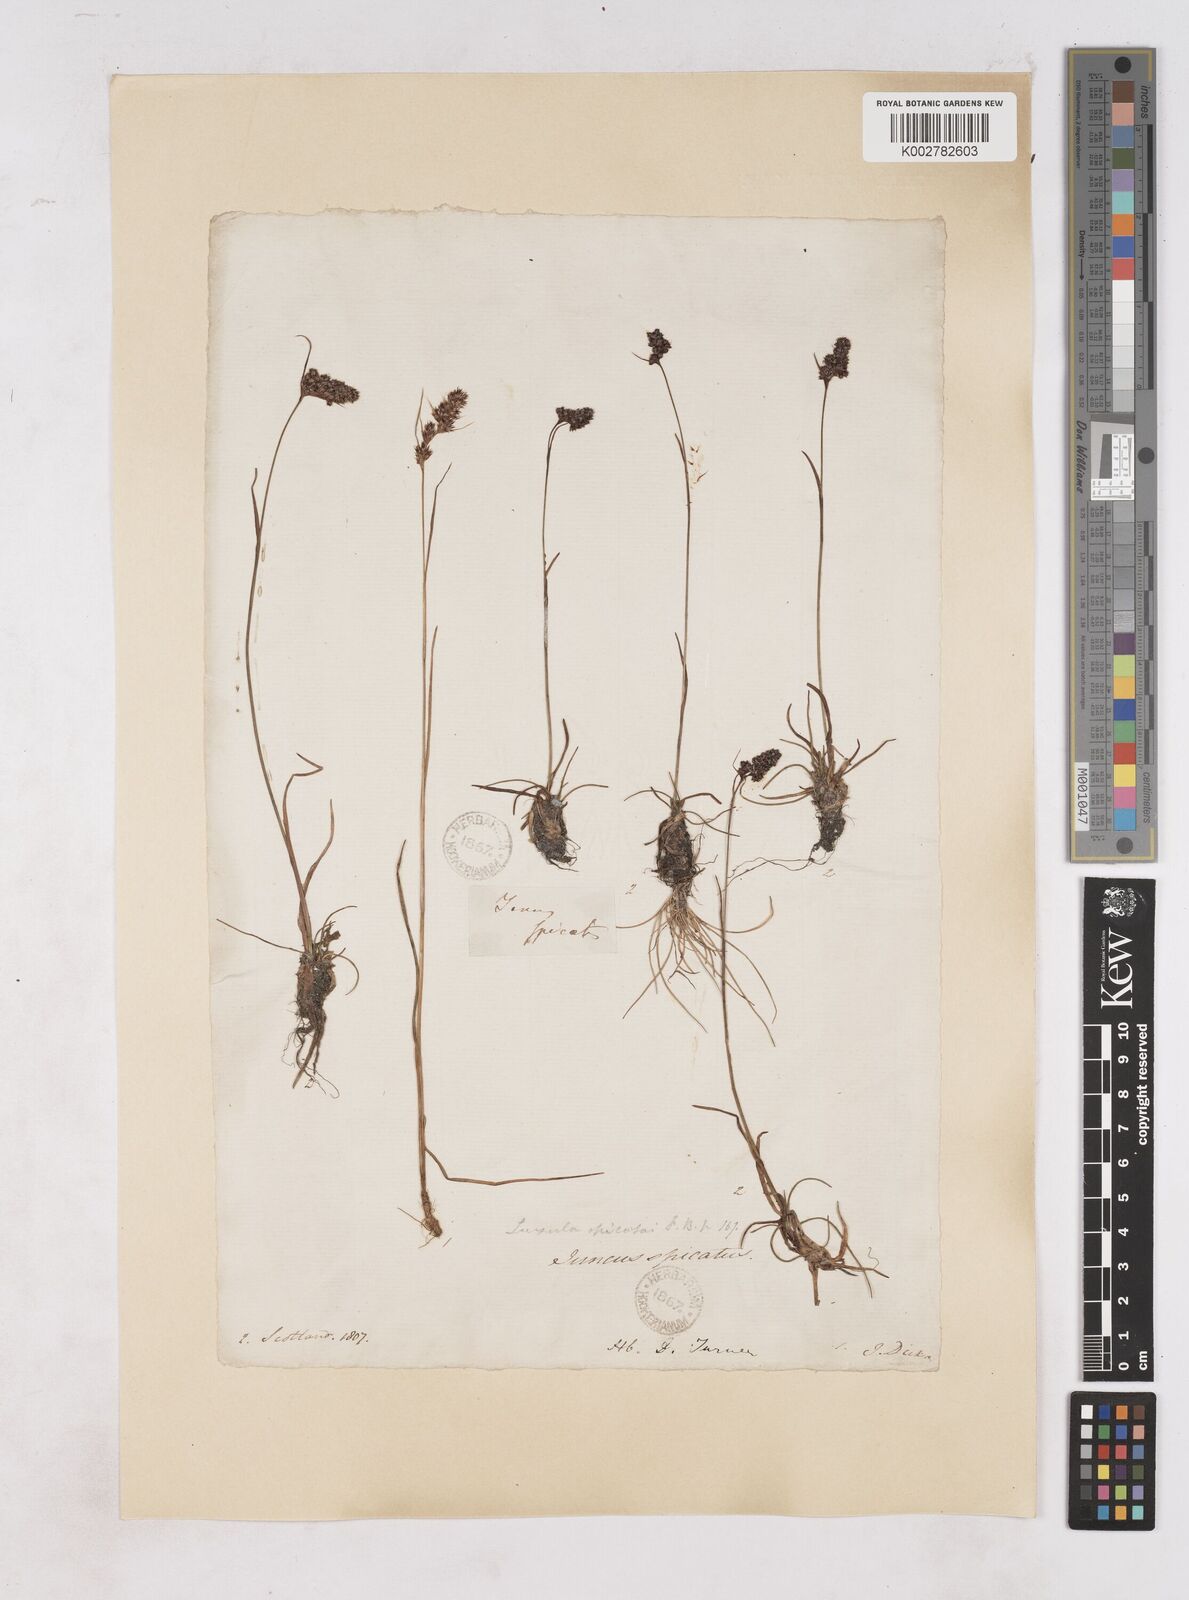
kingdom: Plantae
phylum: Tracheophyta
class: Liliopsida
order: Poales
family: Juncaceae
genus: Luzula
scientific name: Luzula spicata
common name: Spiked wood-rush
